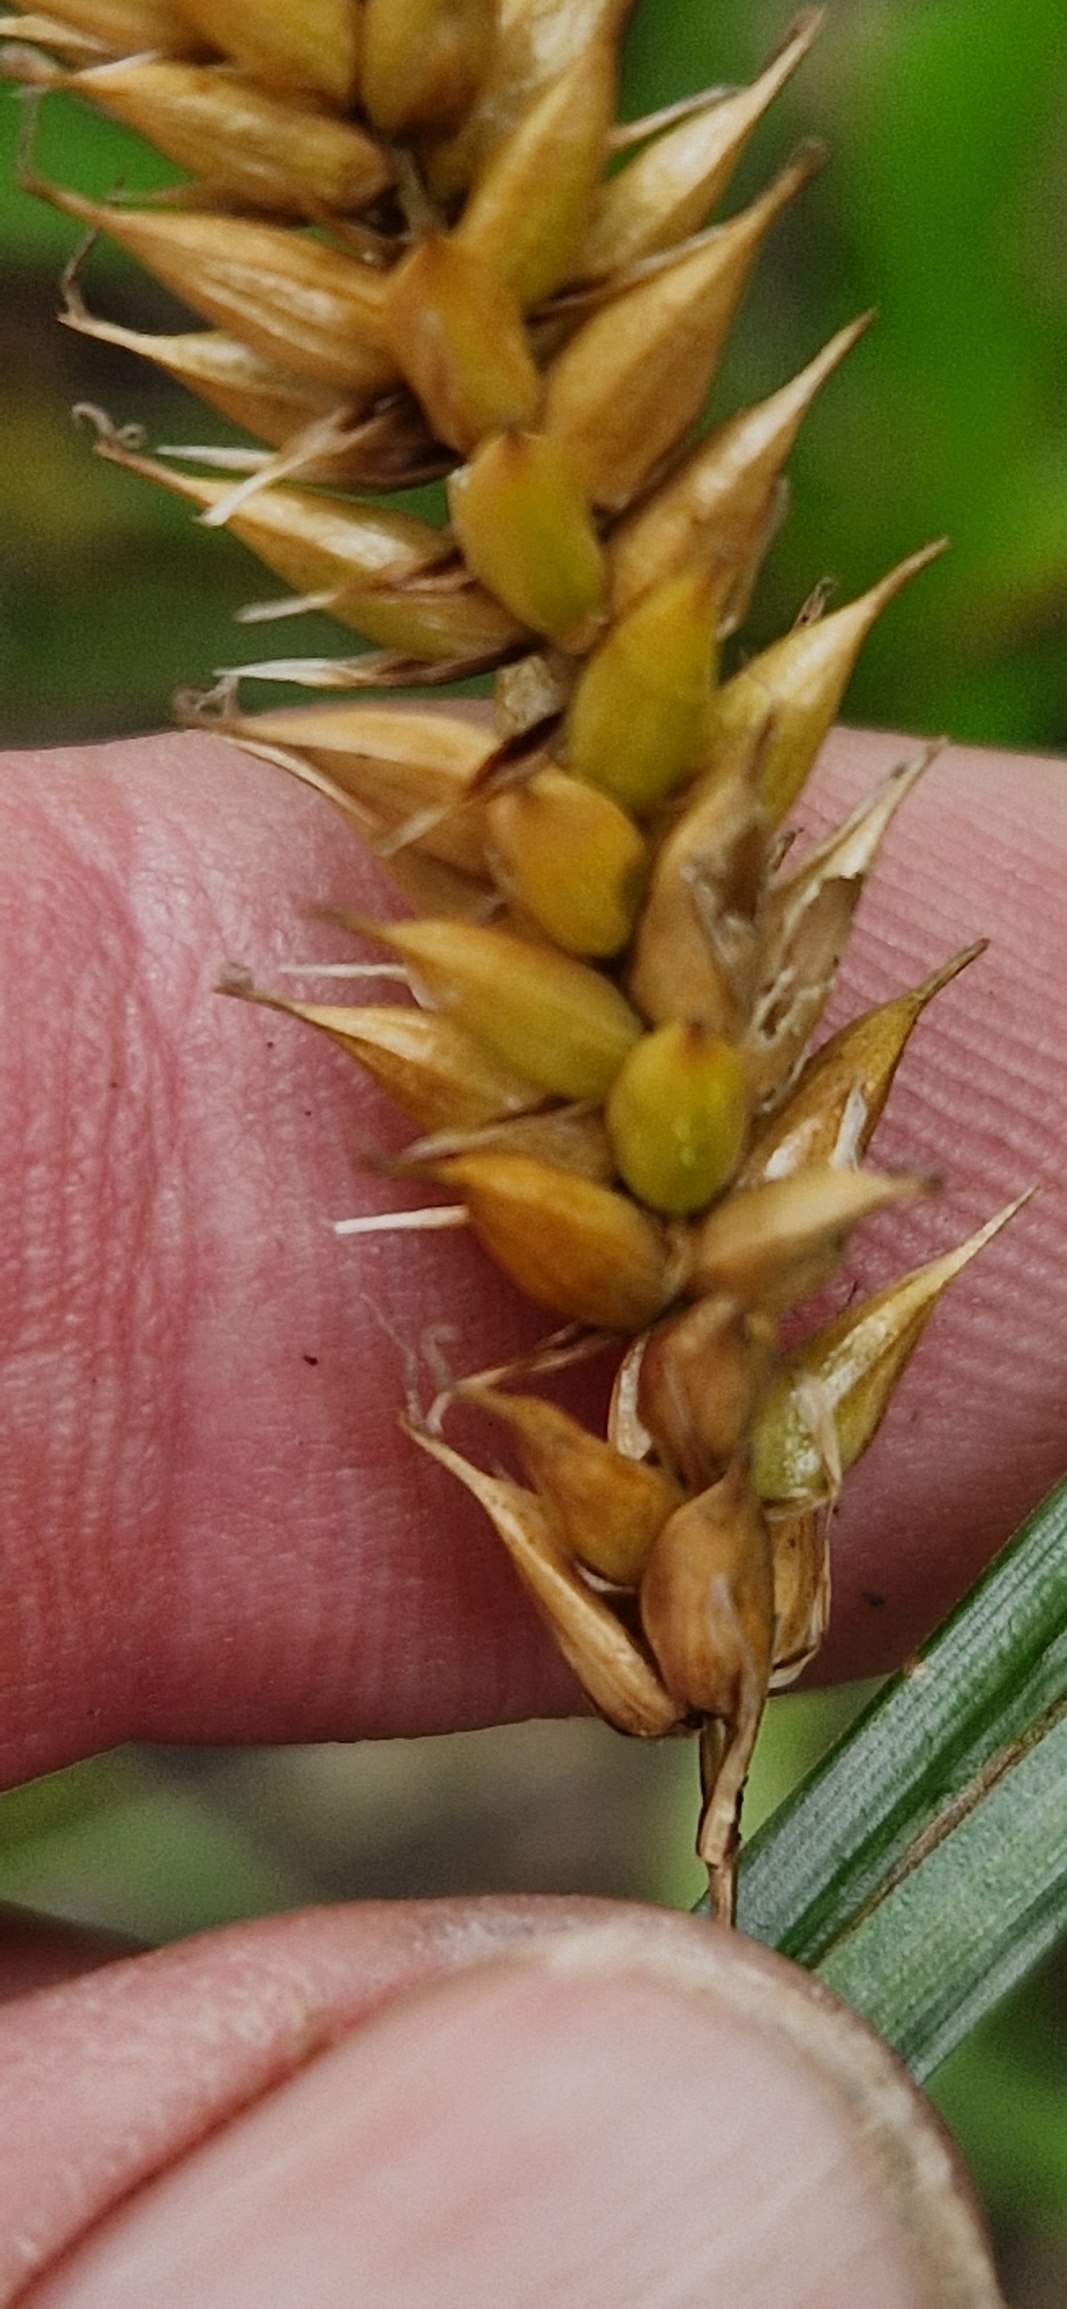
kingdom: Plantae
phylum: Tracheophyta
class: Liliopsida
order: Poales
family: Cyperaceae
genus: Carex
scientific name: Carex vesicaria
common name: Blære-star
